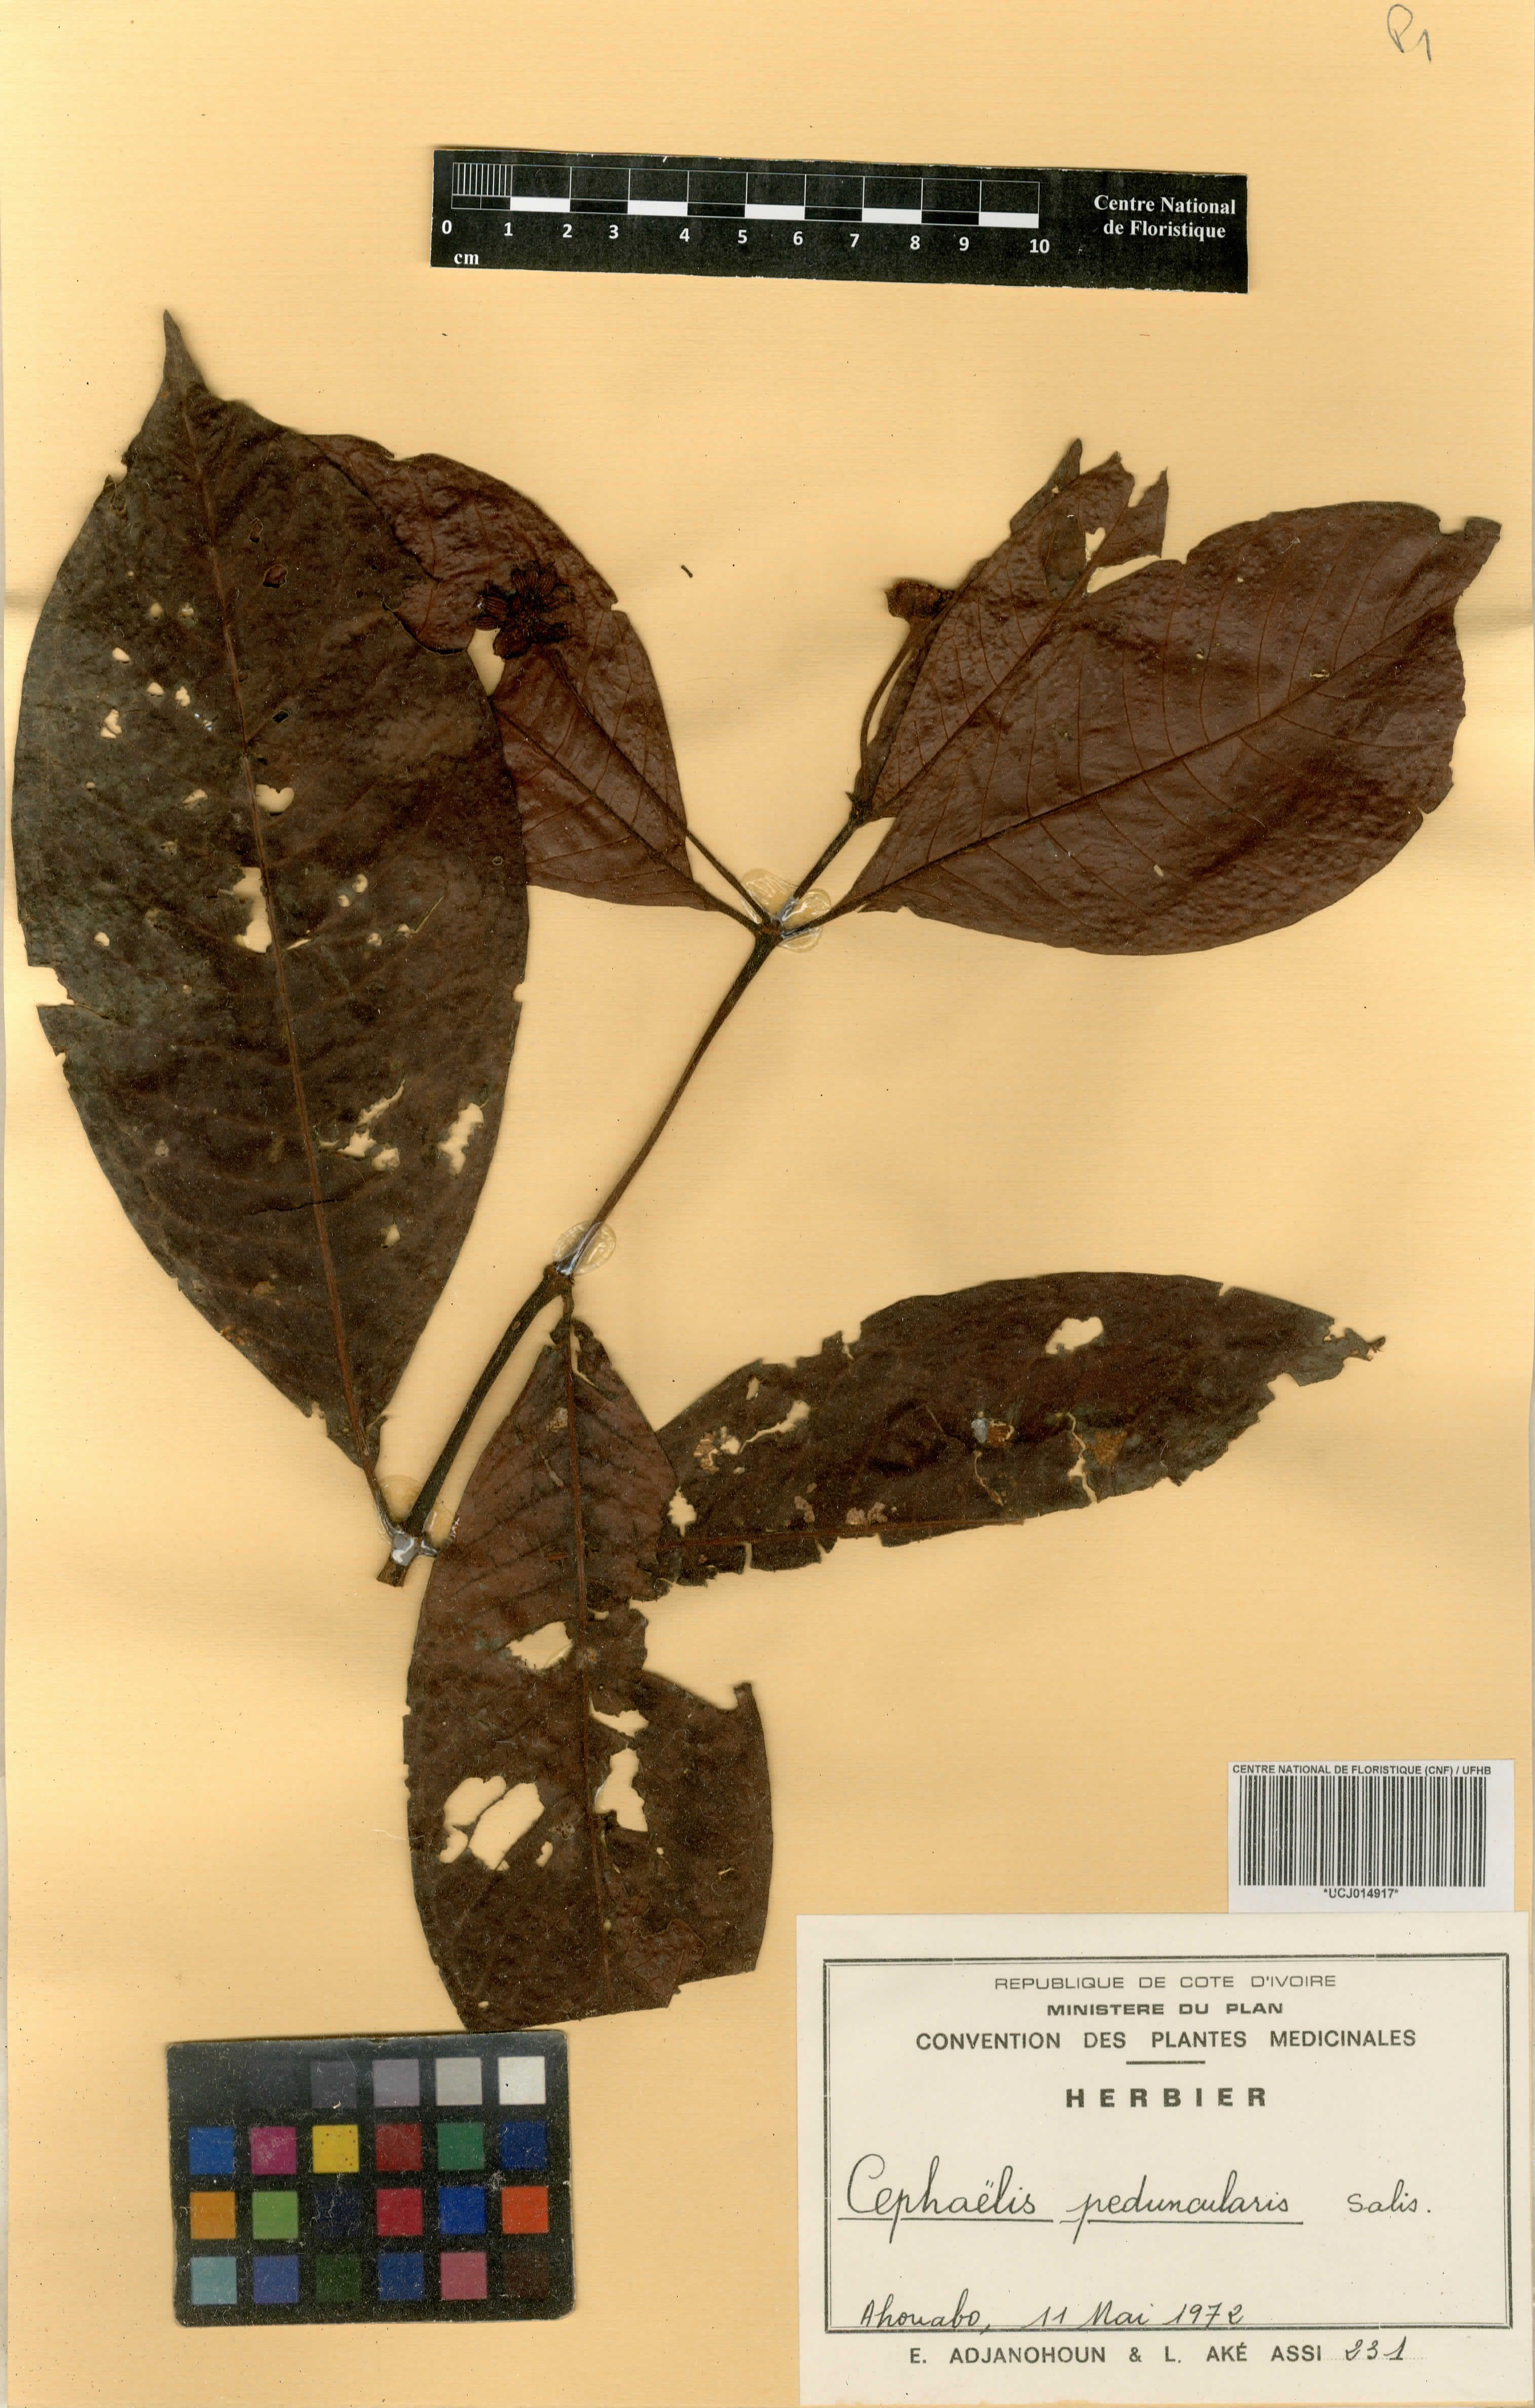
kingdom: Plantae
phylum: Tracheophyta
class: Magnoliopsida
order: Gentianales
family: Rubiaceae
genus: Psychotria
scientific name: Psychotria peduncularis
